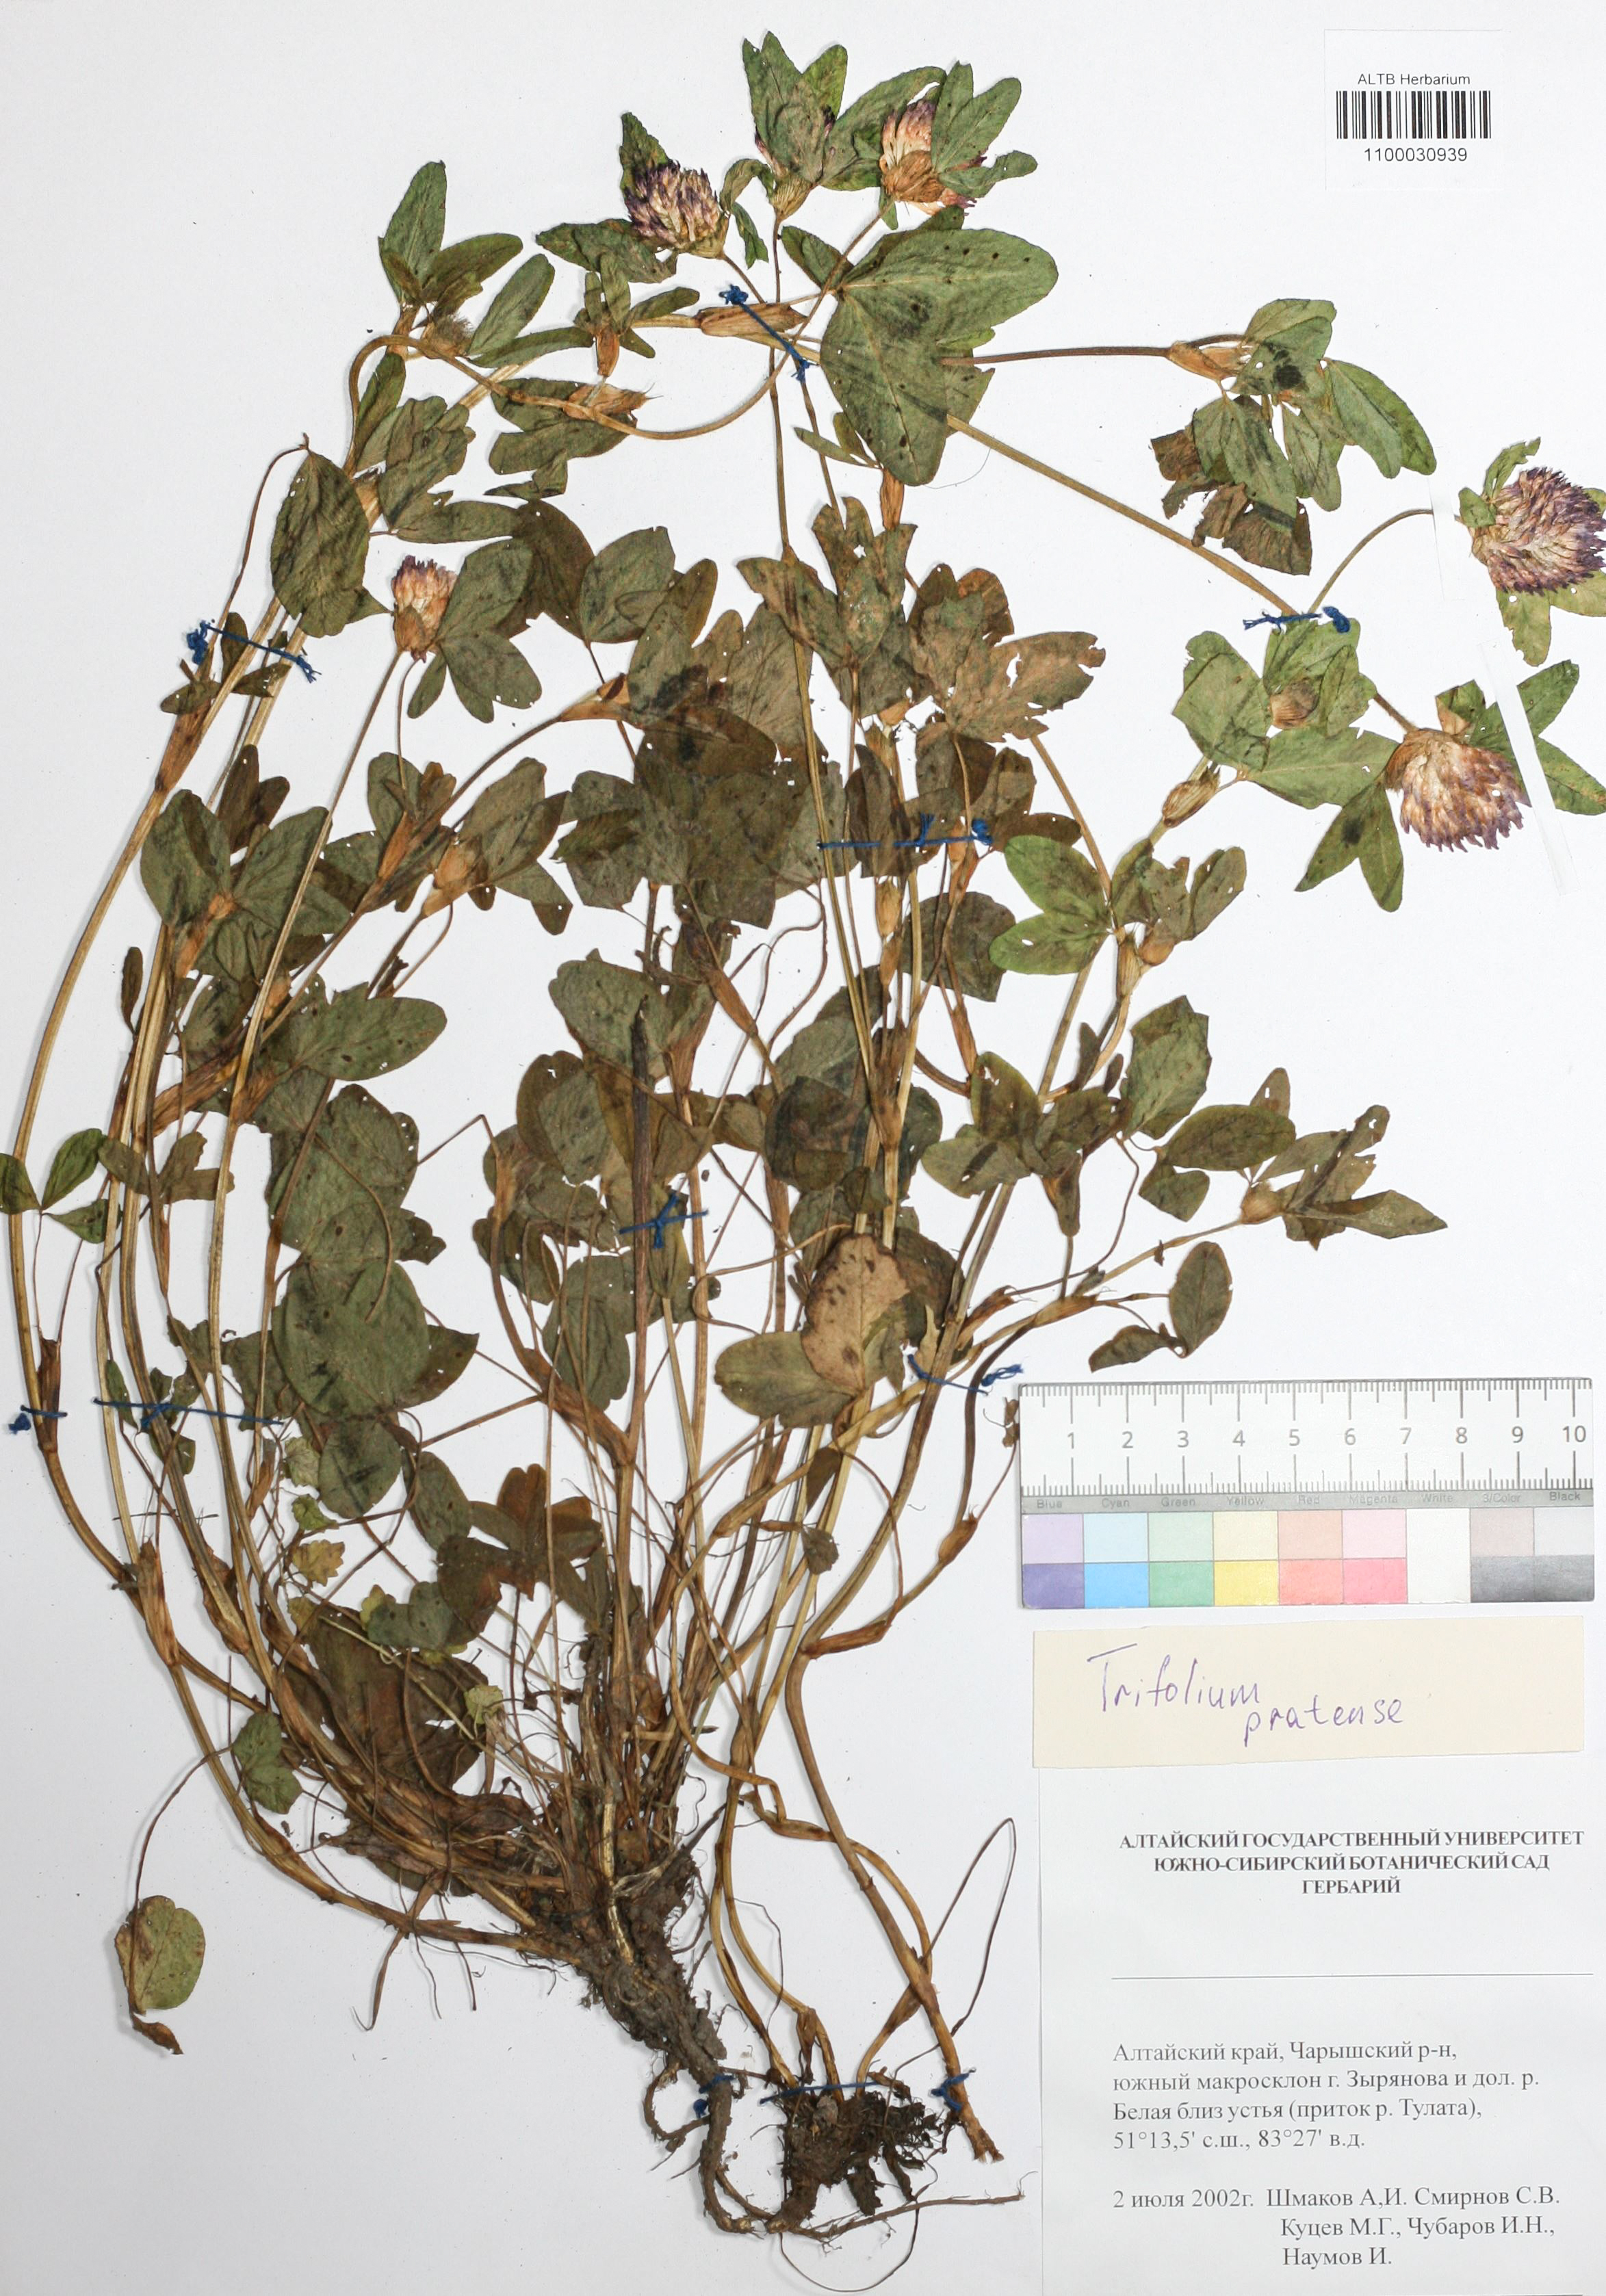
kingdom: Plantae
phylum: Tracheophyta
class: Magnoliopsida
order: Fabales
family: Fabaceae
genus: Trifolium
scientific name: Trifolium pratense
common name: Red clover
